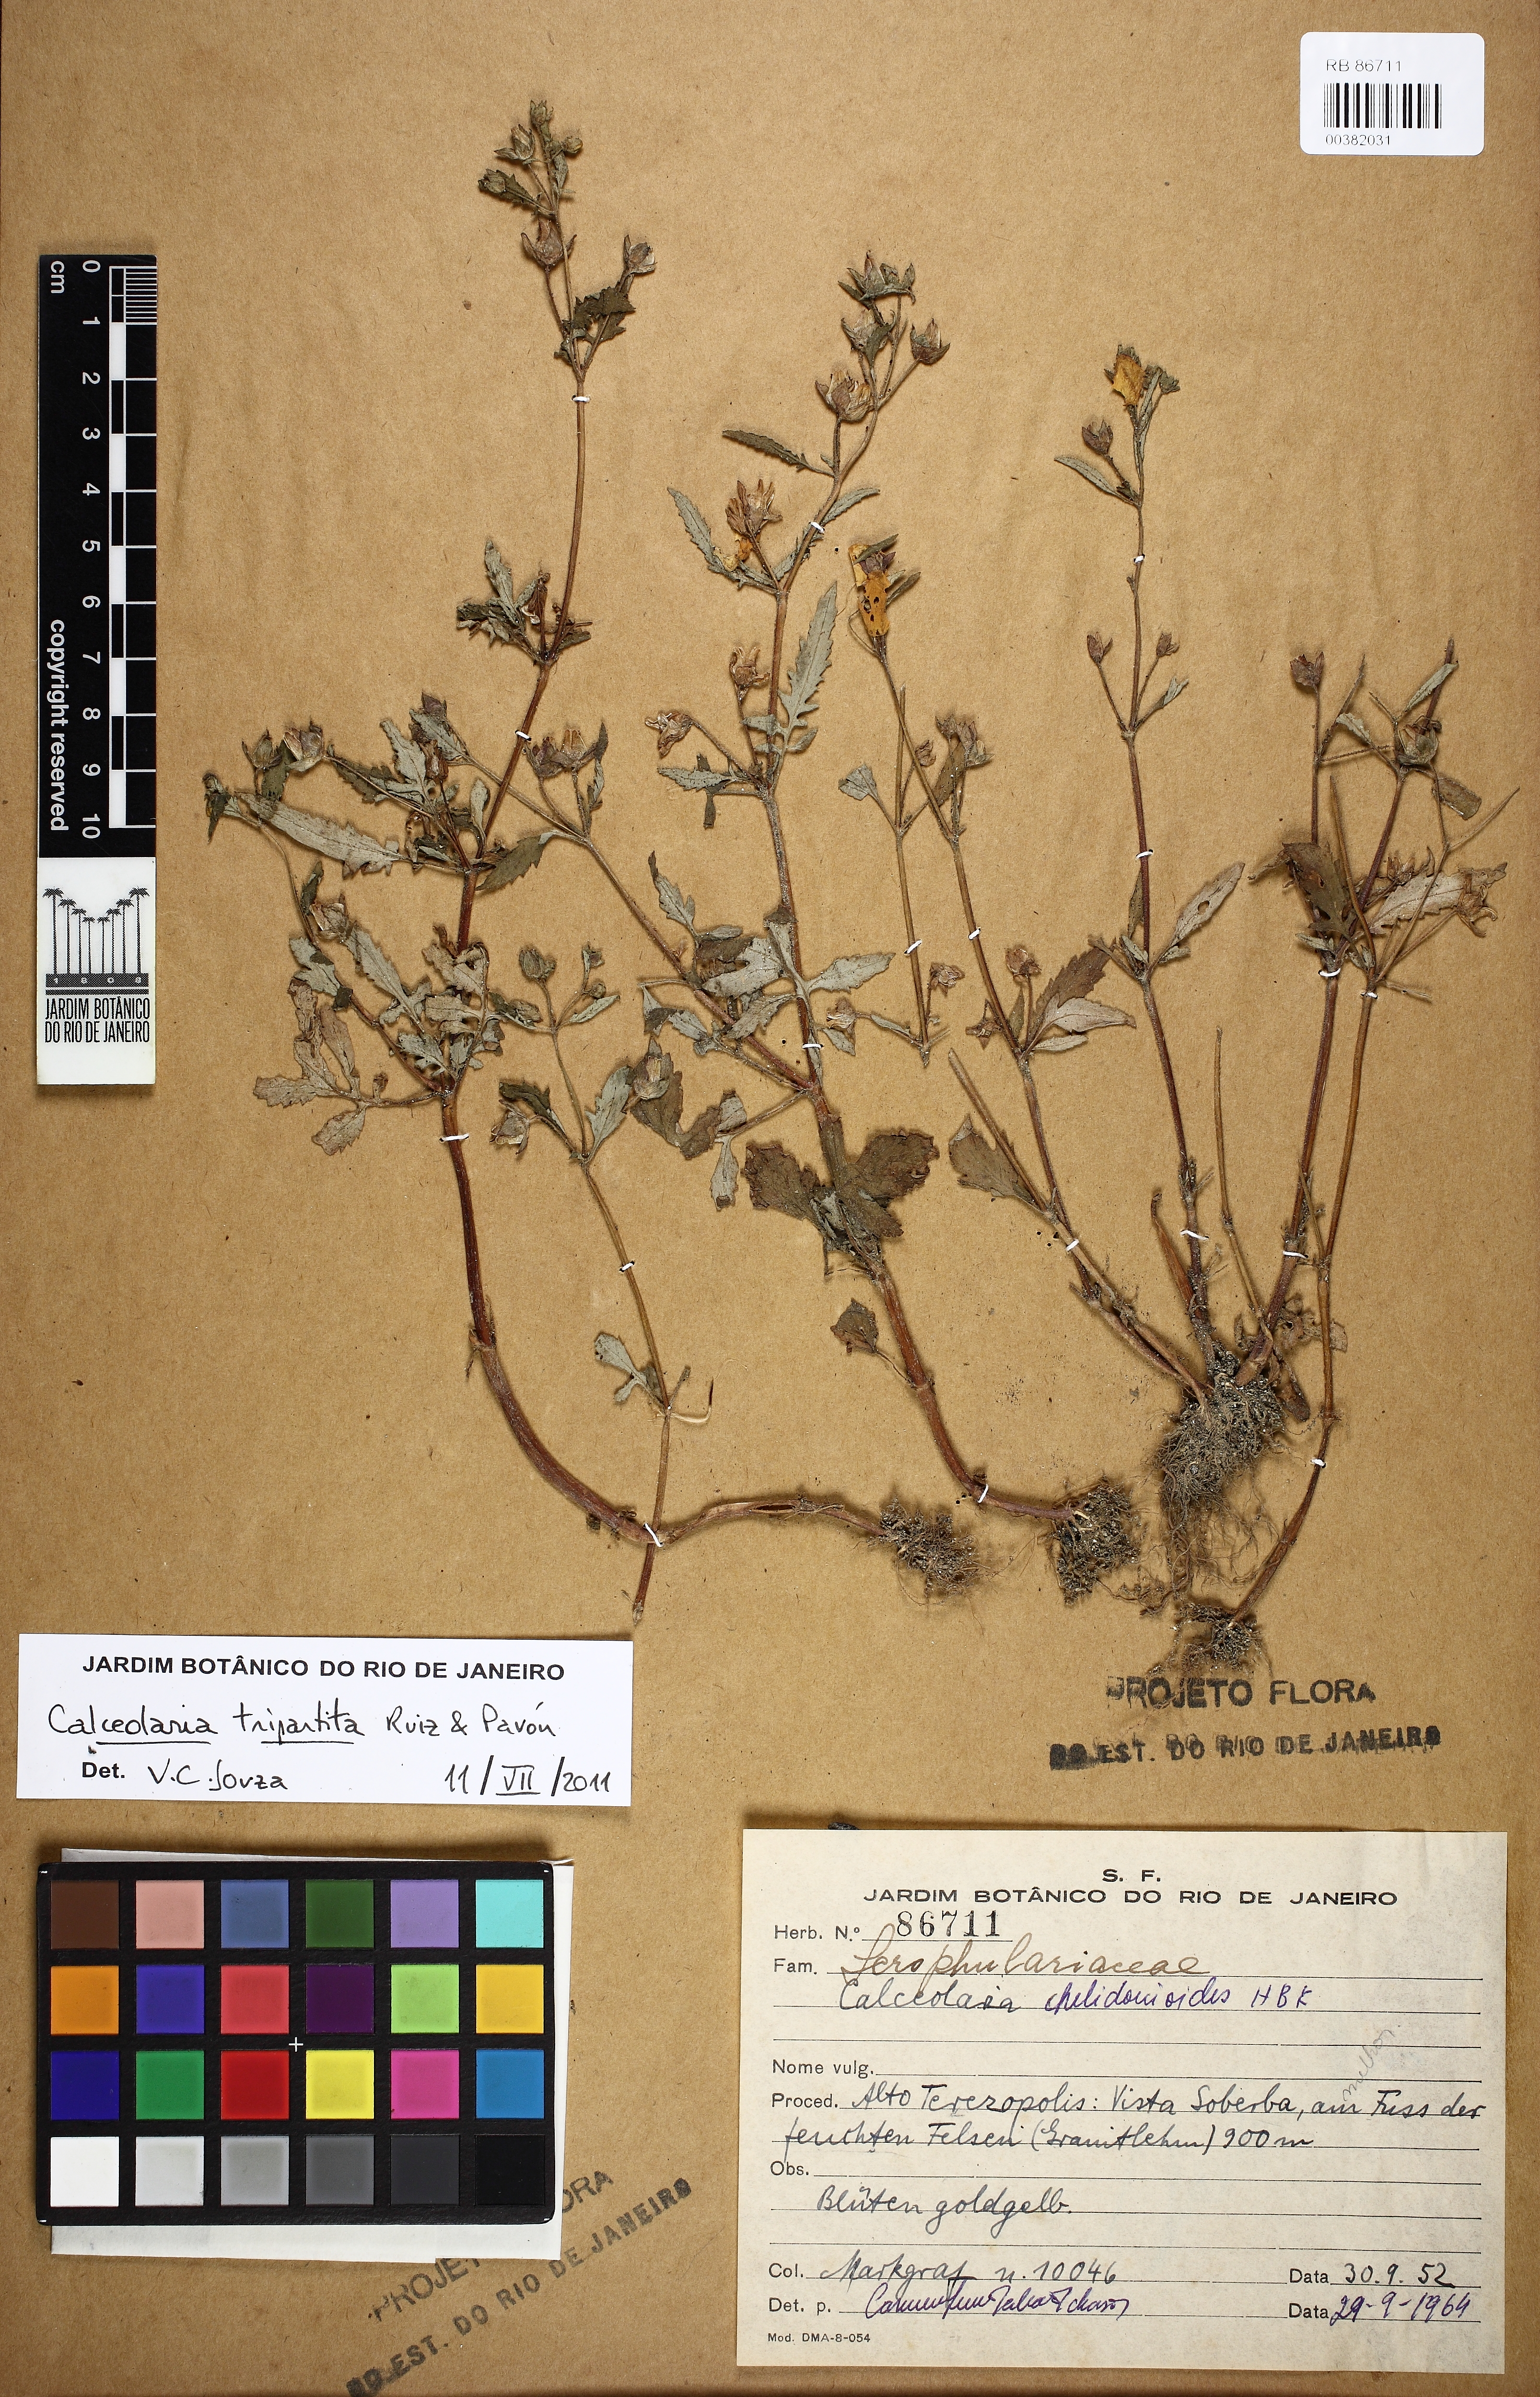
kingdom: Animalia
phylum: Mollusca
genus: Calceolaria
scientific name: Calceolaria
